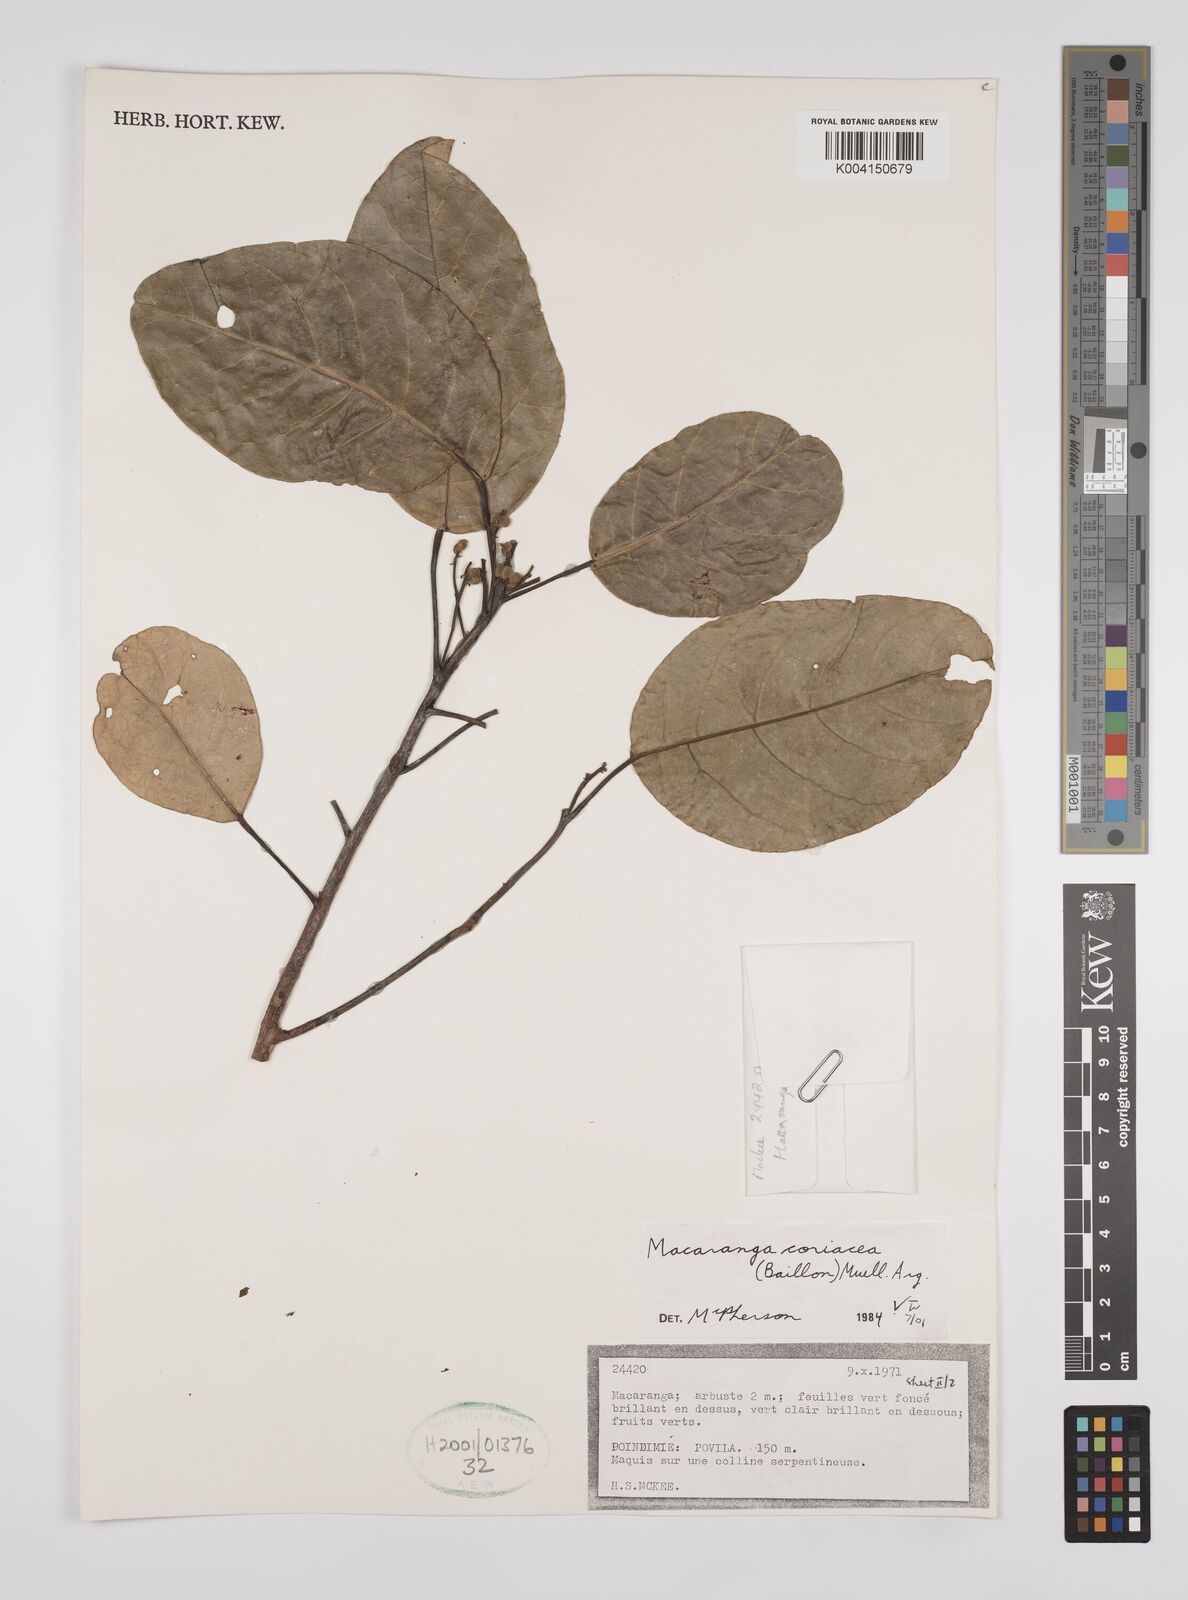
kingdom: Plantae
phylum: Tracheophyta
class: Magnoliopsida
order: Malpighiales
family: Euphorbiaceae
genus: Macaranga
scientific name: Macaranga coriacea
